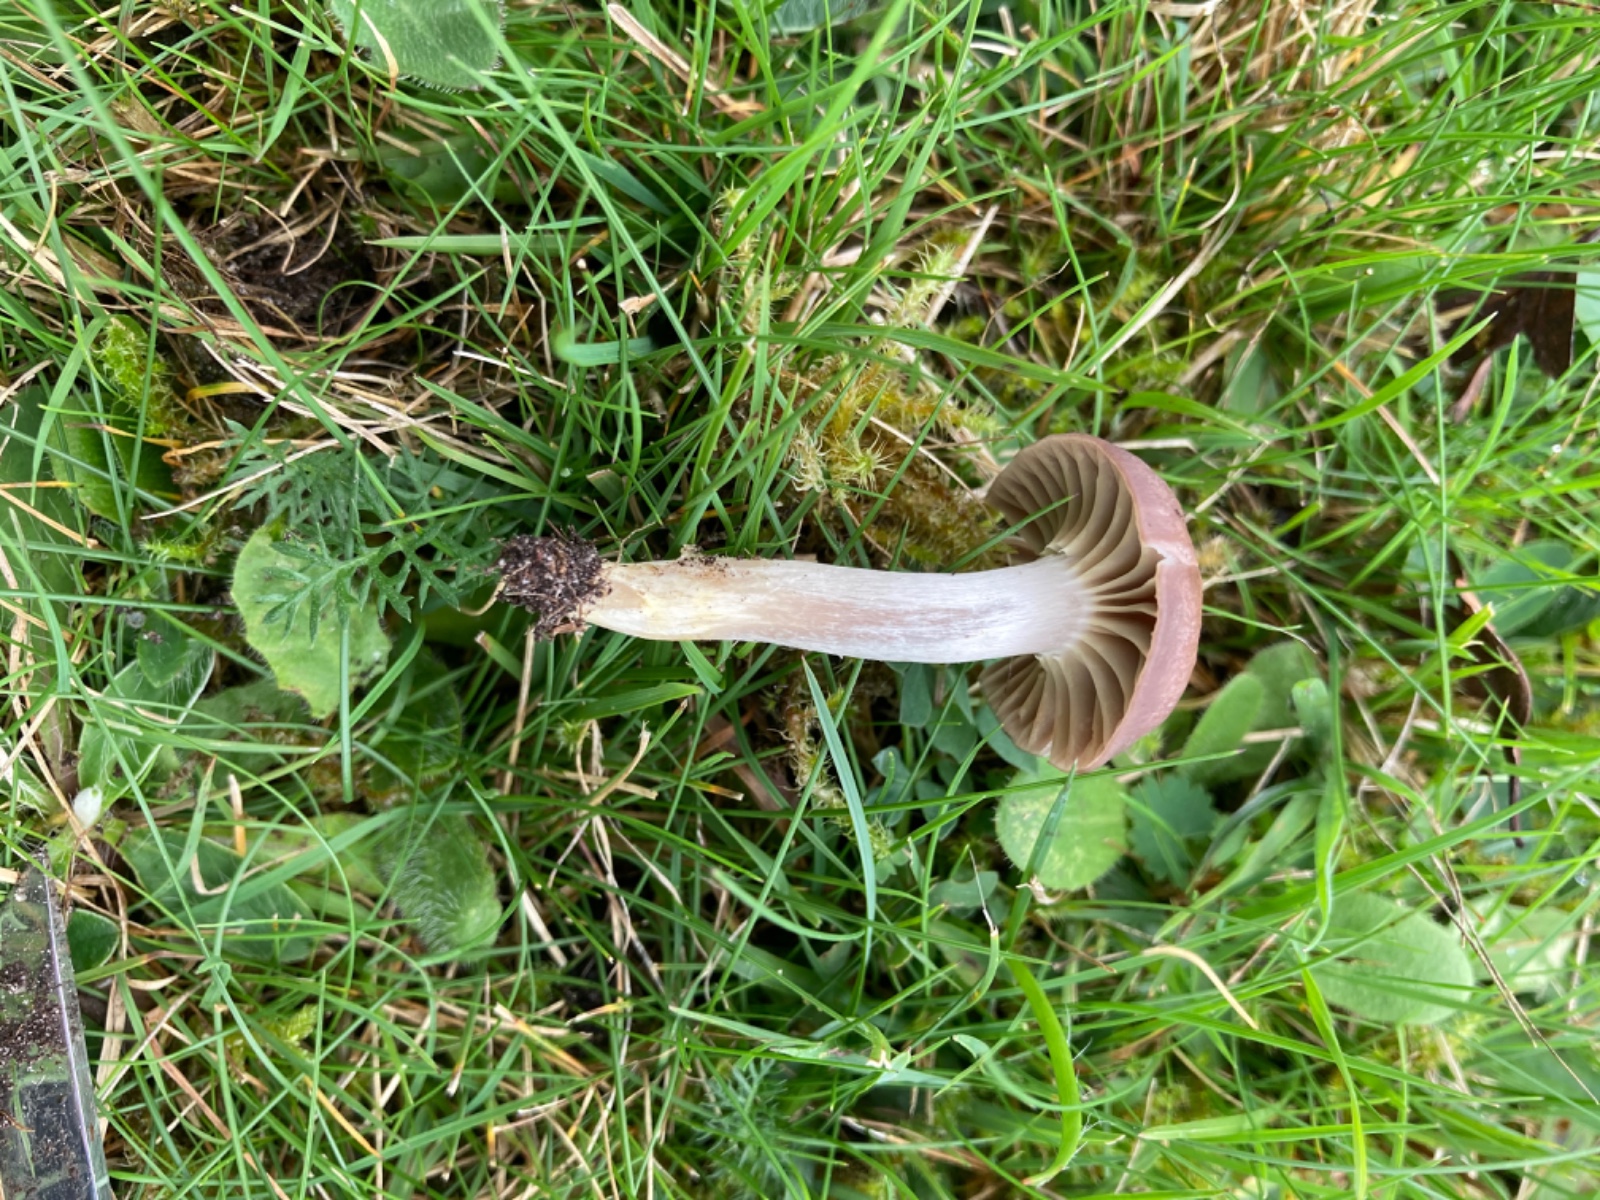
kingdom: Fungi
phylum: Basidiomycota
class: Agaricomycetes
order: Agaricales
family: Hygrophoraceae
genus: Cuphophyllus
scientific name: Cuphophyllus flavipes
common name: gulfodet vokshat
